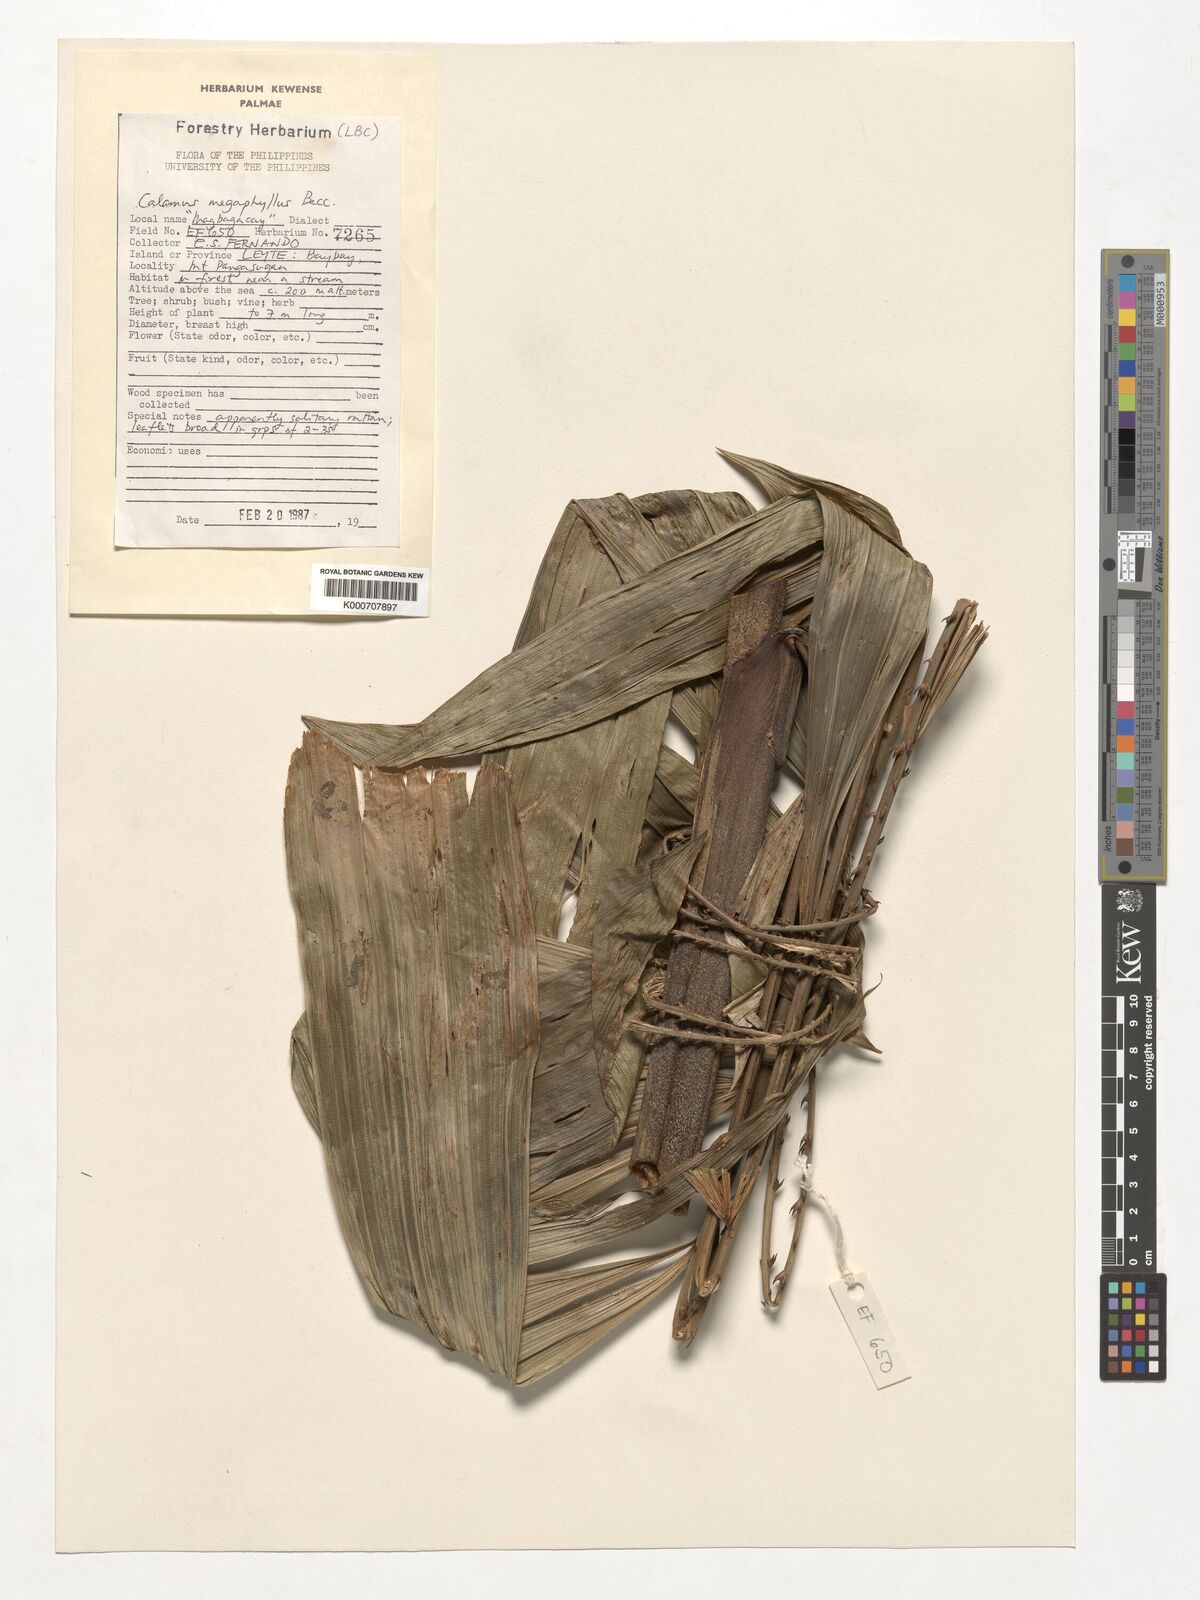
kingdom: Plantae
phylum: Tracheophyta
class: Liliopsida
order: Arecales
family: Arecaceae
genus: Calamus
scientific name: Calamus megaphyllus
